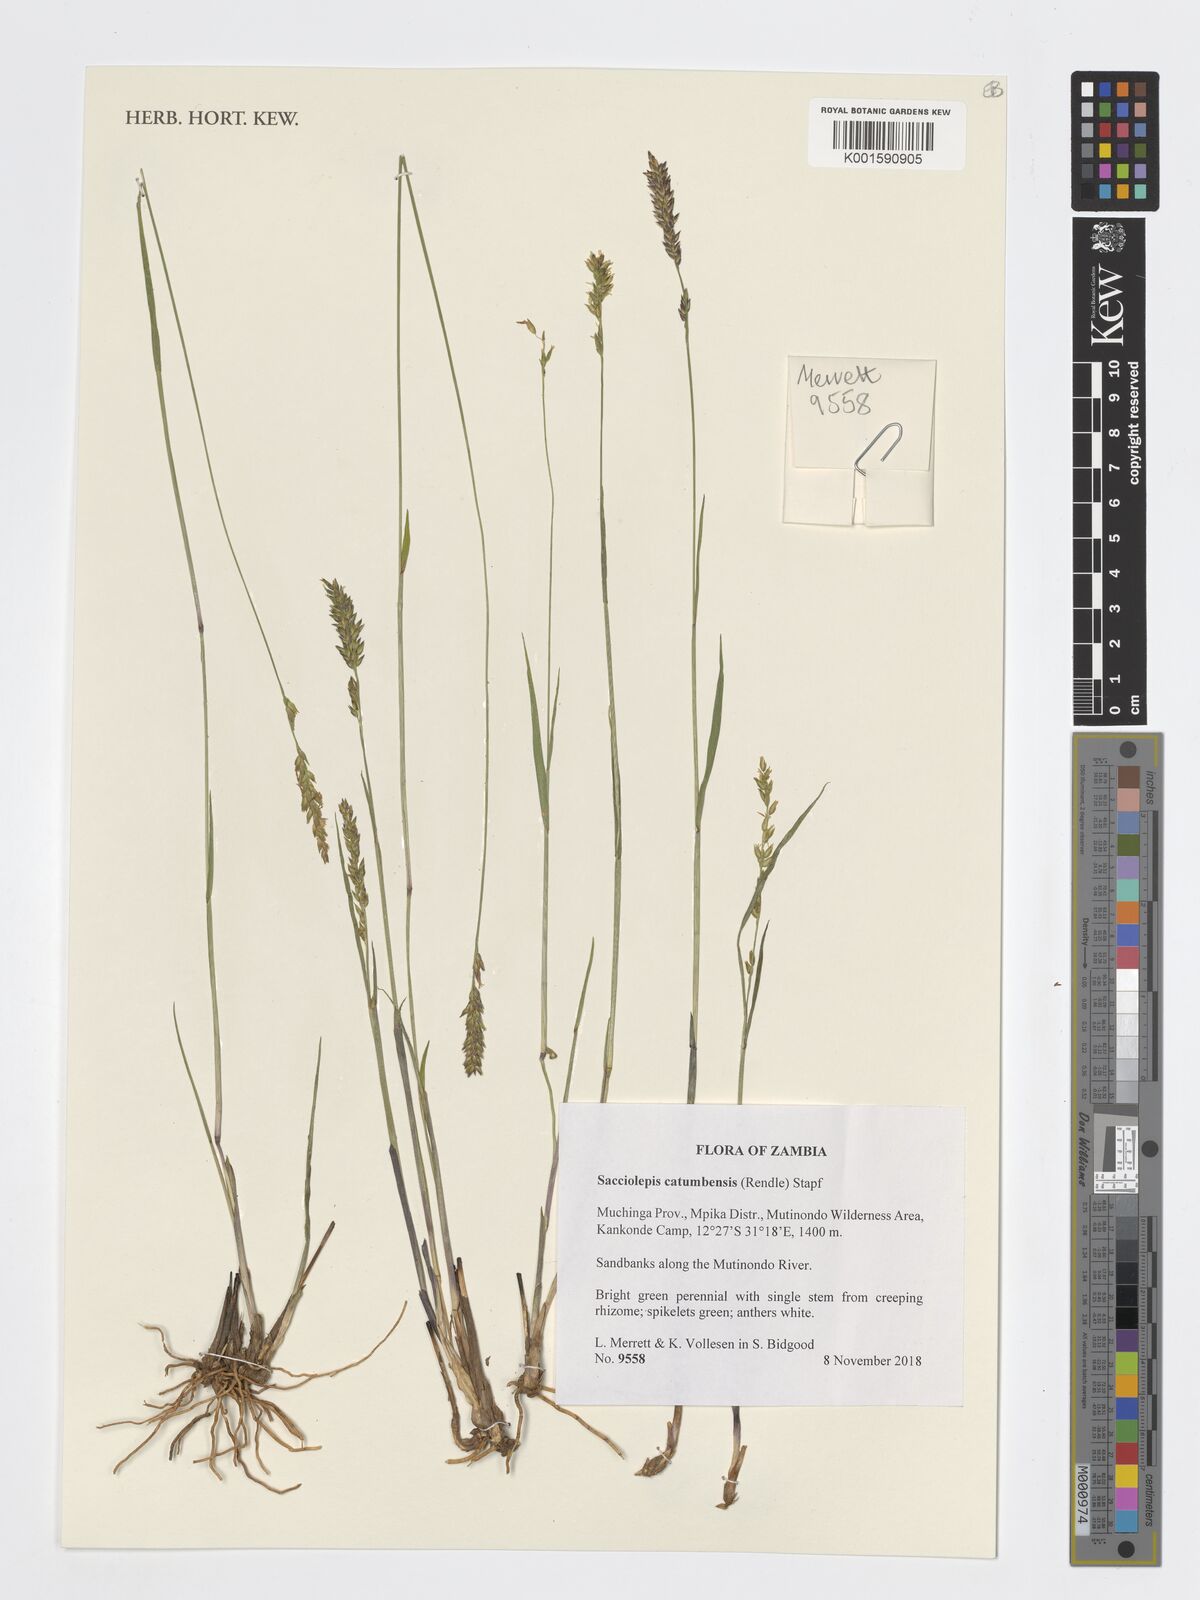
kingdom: Plantae
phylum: Tracheophyta
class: Liliopsida
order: Poales
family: Poaceae
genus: Sacciolepis
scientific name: Sacciolepis catumbensis
